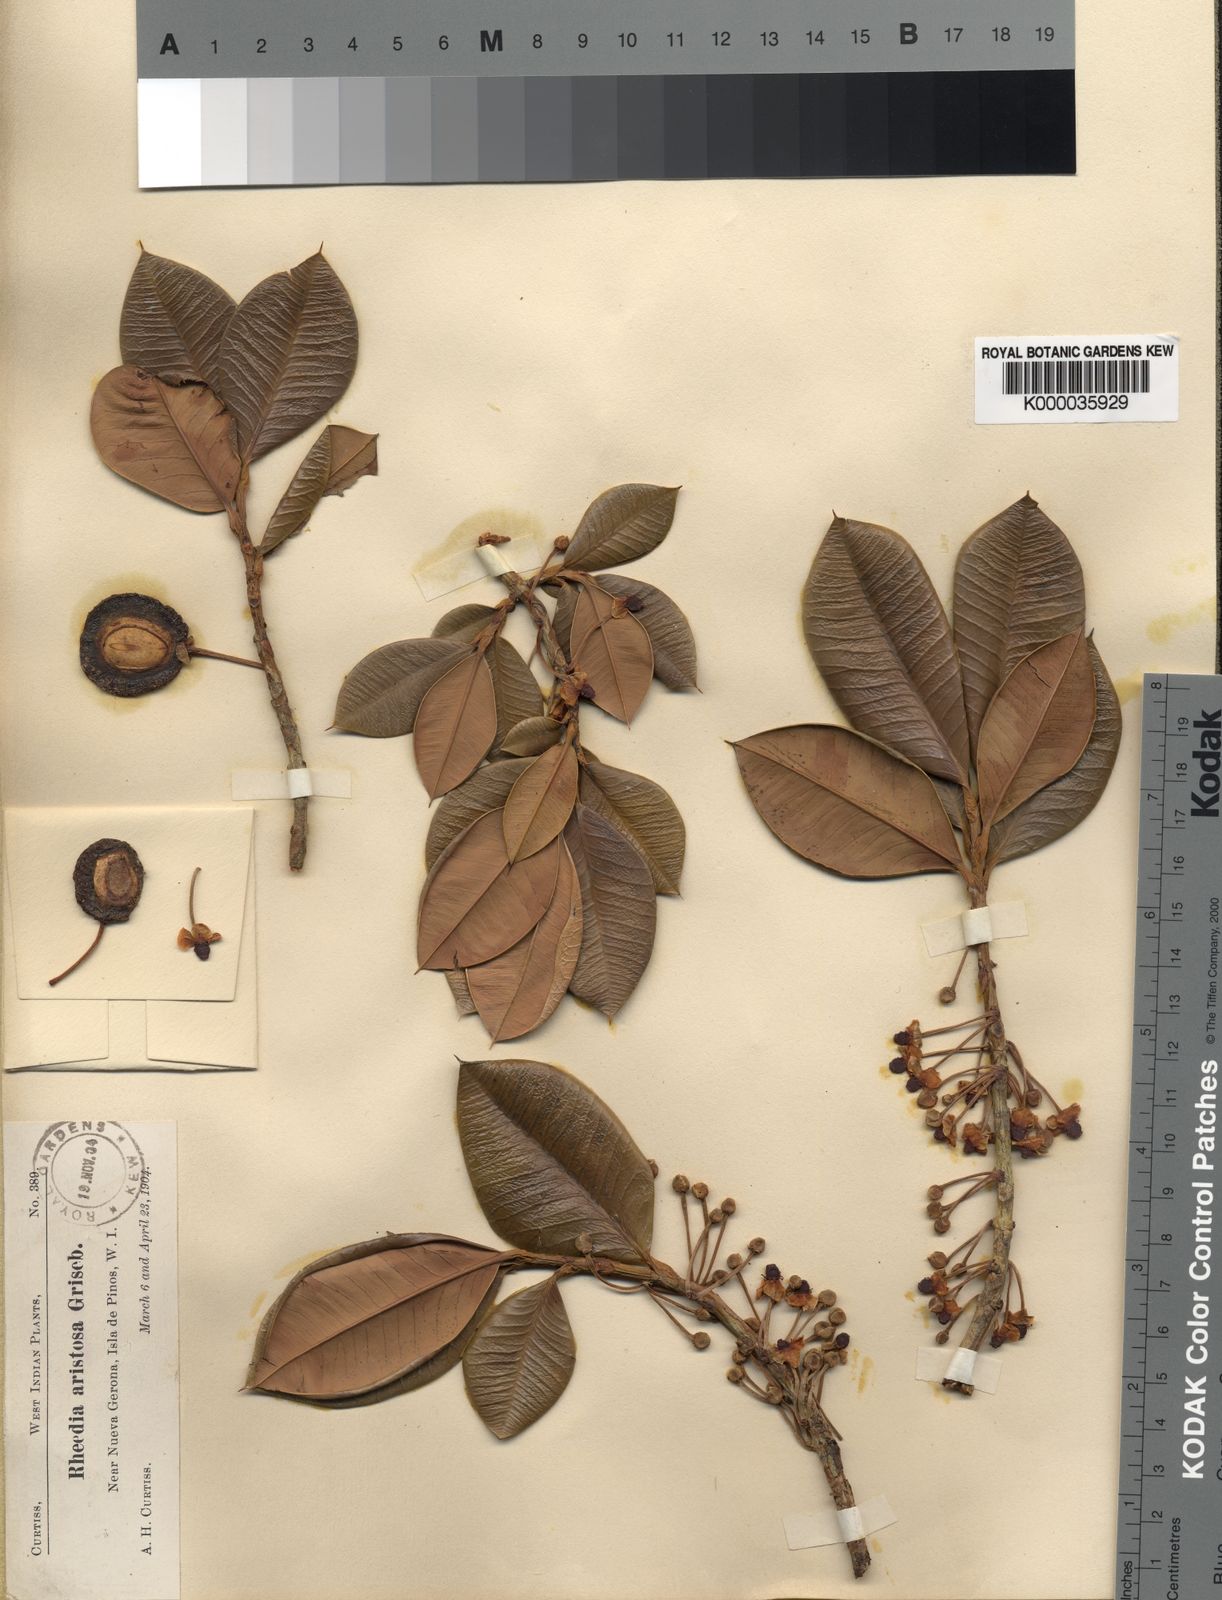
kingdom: Plantae
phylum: Tracheophyta
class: Magnoliopsida
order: Malpighiales
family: Clusiaceae
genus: Garcinia
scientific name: Garcinia aristata
